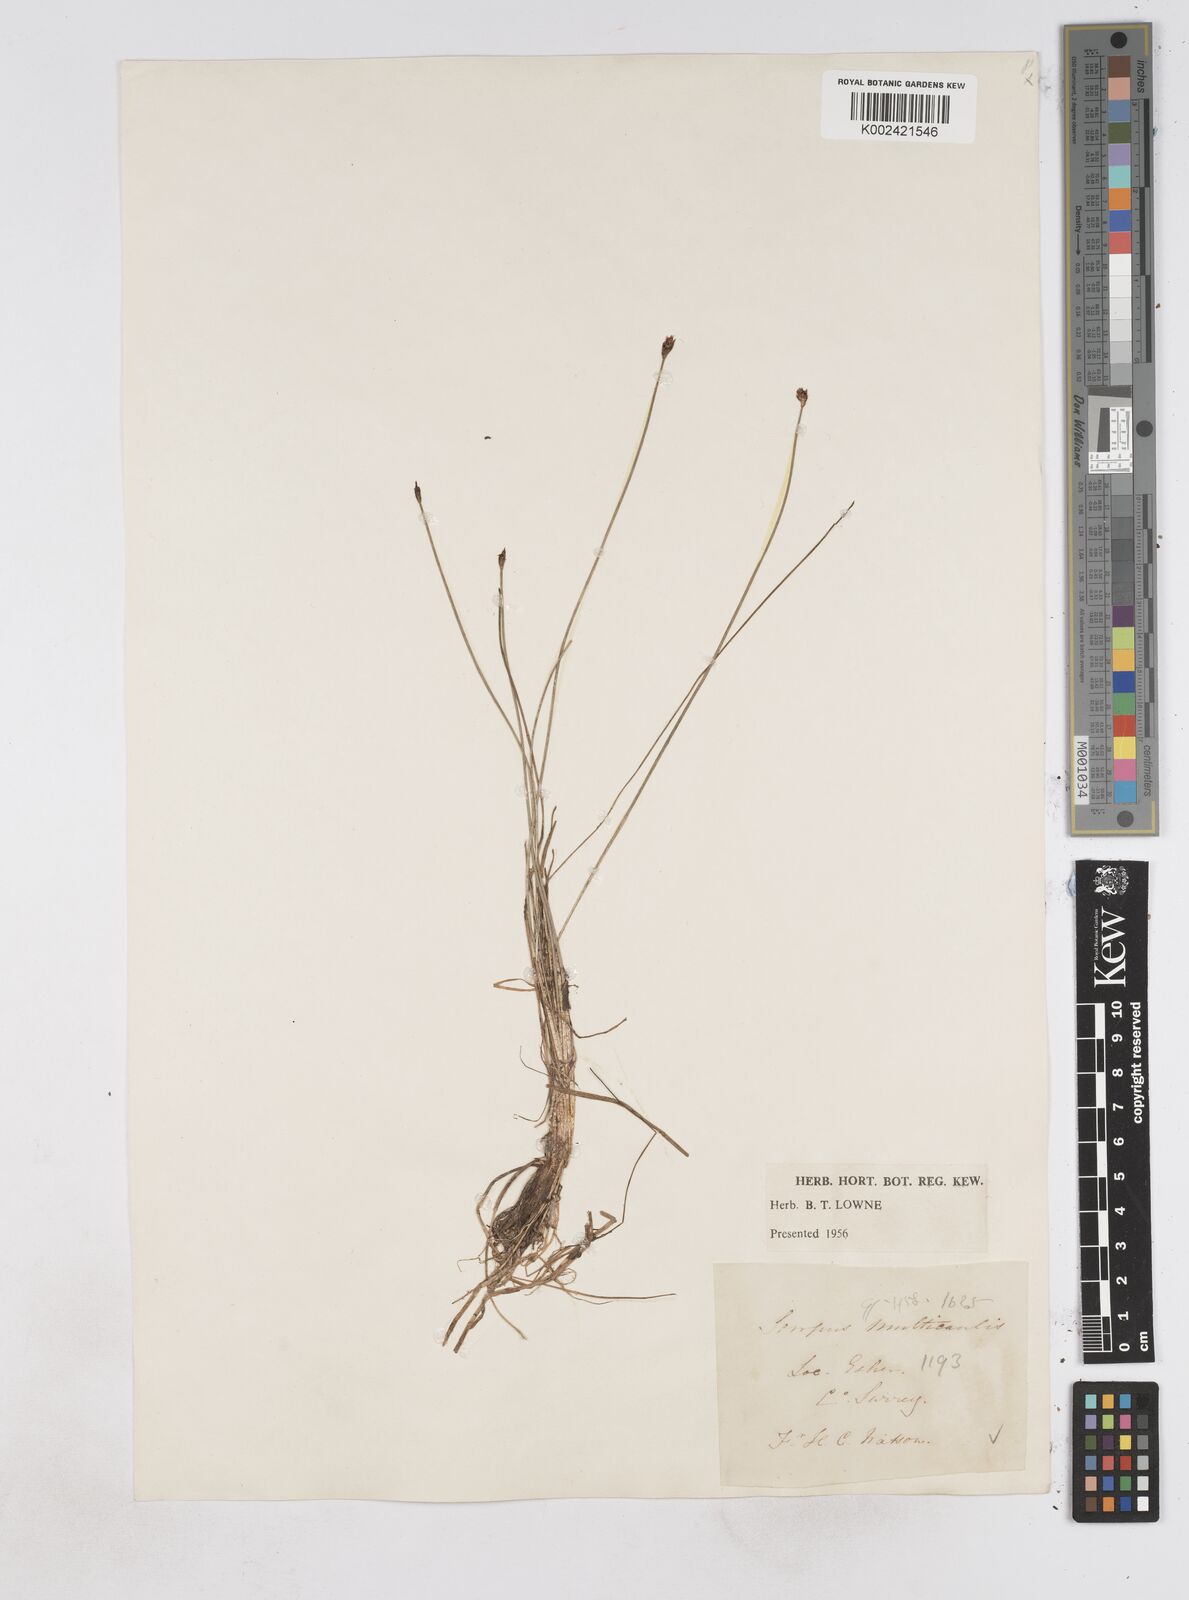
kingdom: Plantae
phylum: Tracheophyta
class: Liliopsida
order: Poales
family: Cyperaceae
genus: Eleocharis
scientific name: Eleocharis multicaulis
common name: Many-stalked spike-rush
